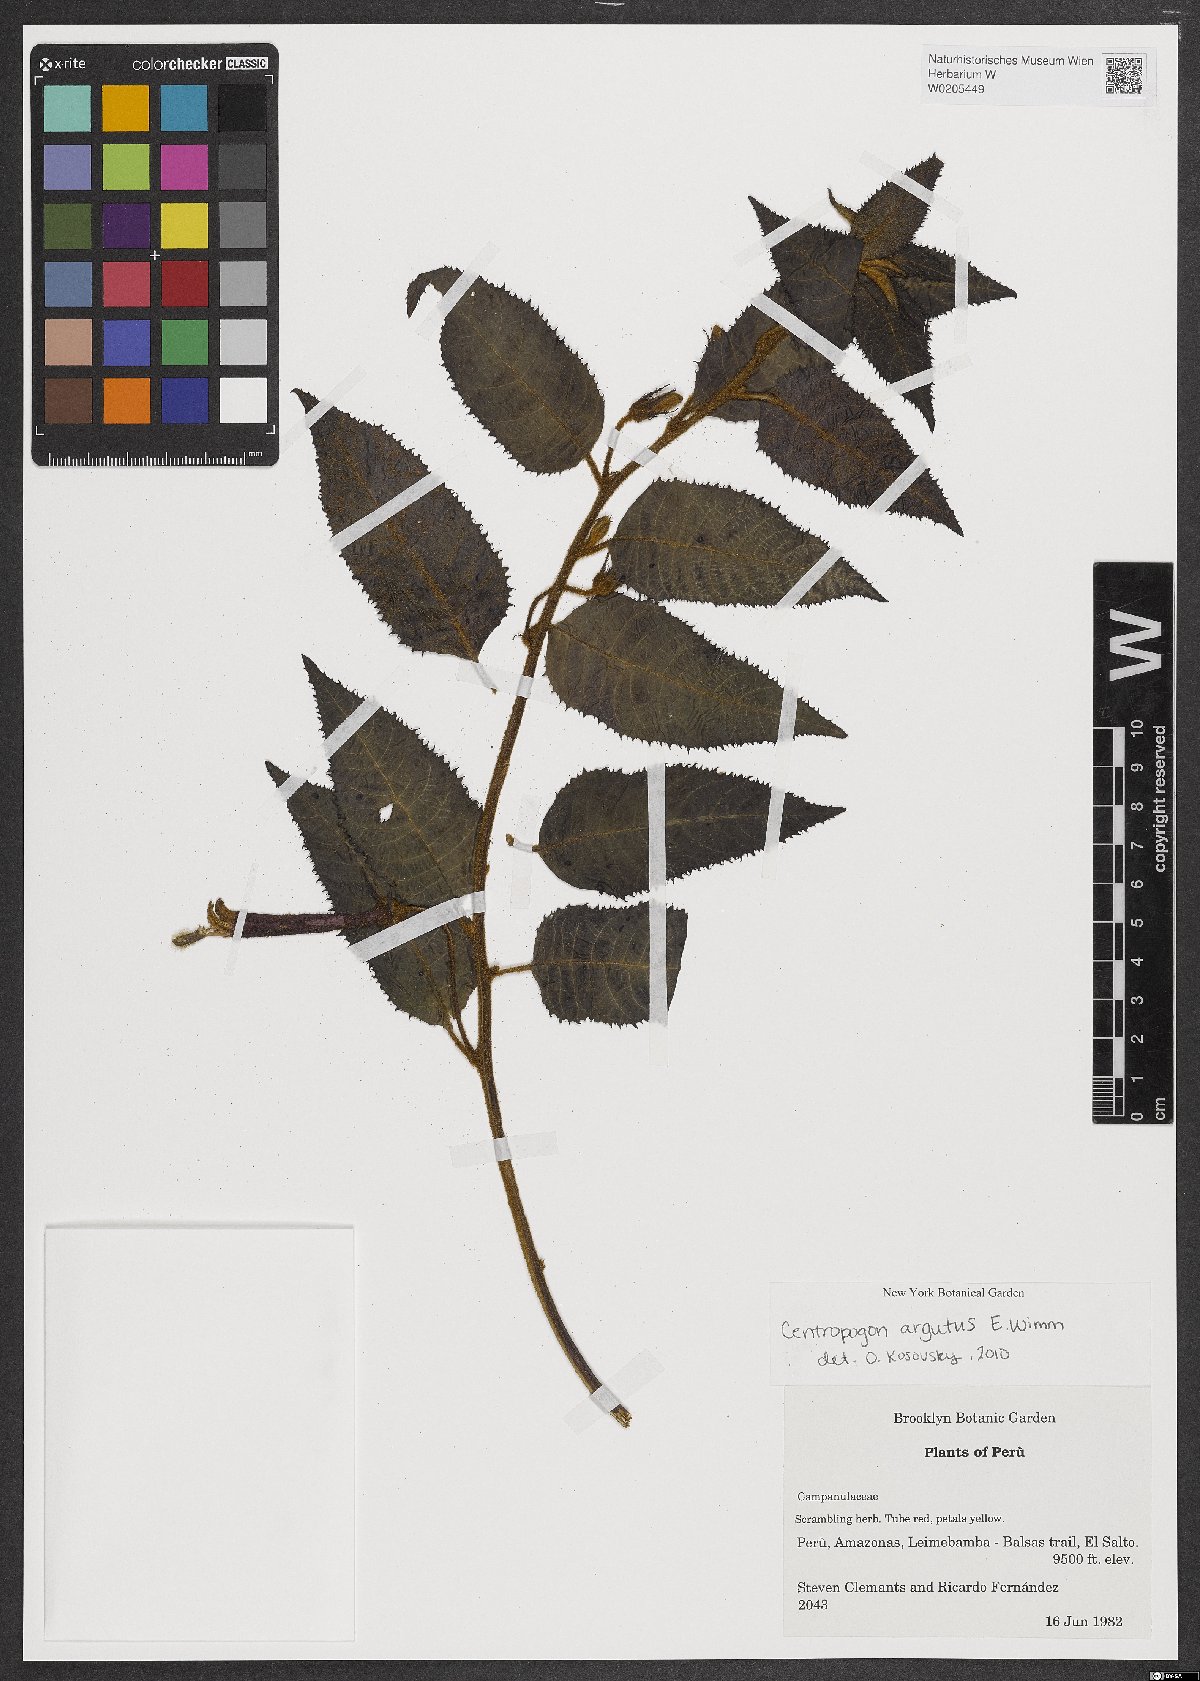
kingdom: Plantae
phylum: Tracheophyta
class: Magnoliopsida
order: Asterales
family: Campanulaceae
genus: Centropogon
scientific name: Centropogon argutus
